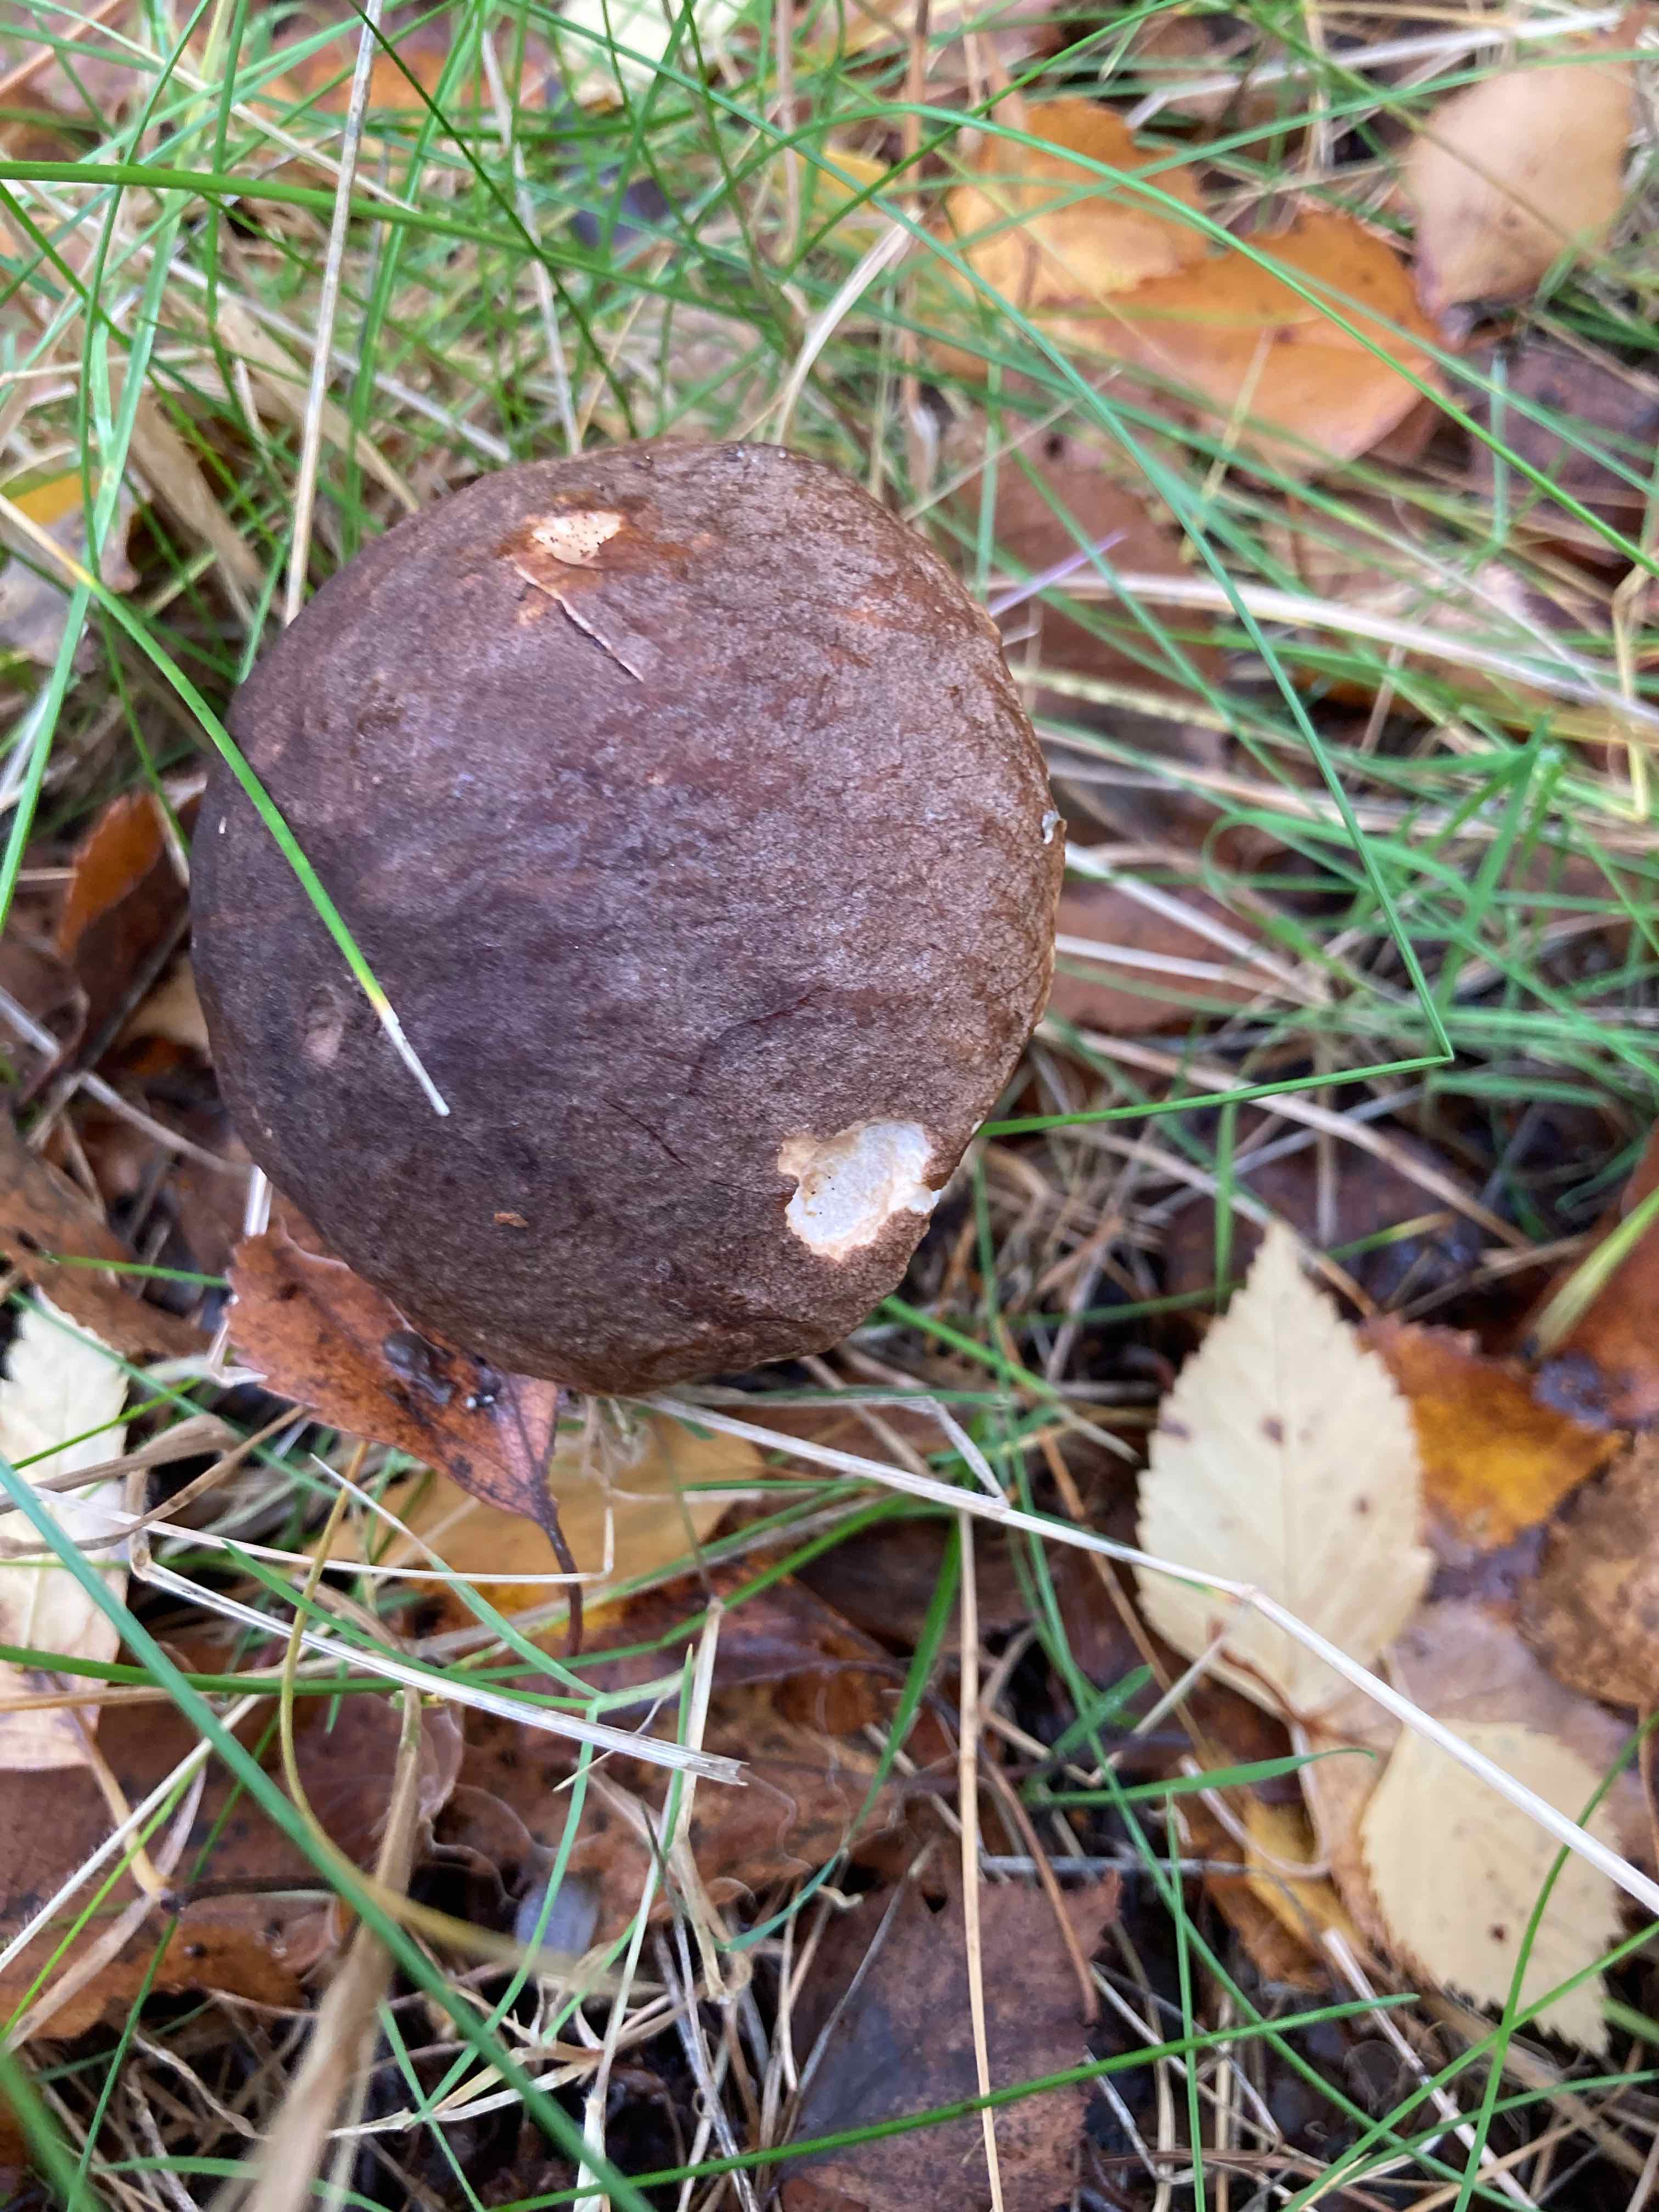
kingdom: Fungi
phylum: Basidiomycota
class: Agaricomycetes
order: Boletales
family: Boletaceae
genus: Leccinum
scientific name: Leccinum scabrum
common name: brun skælrørhat
